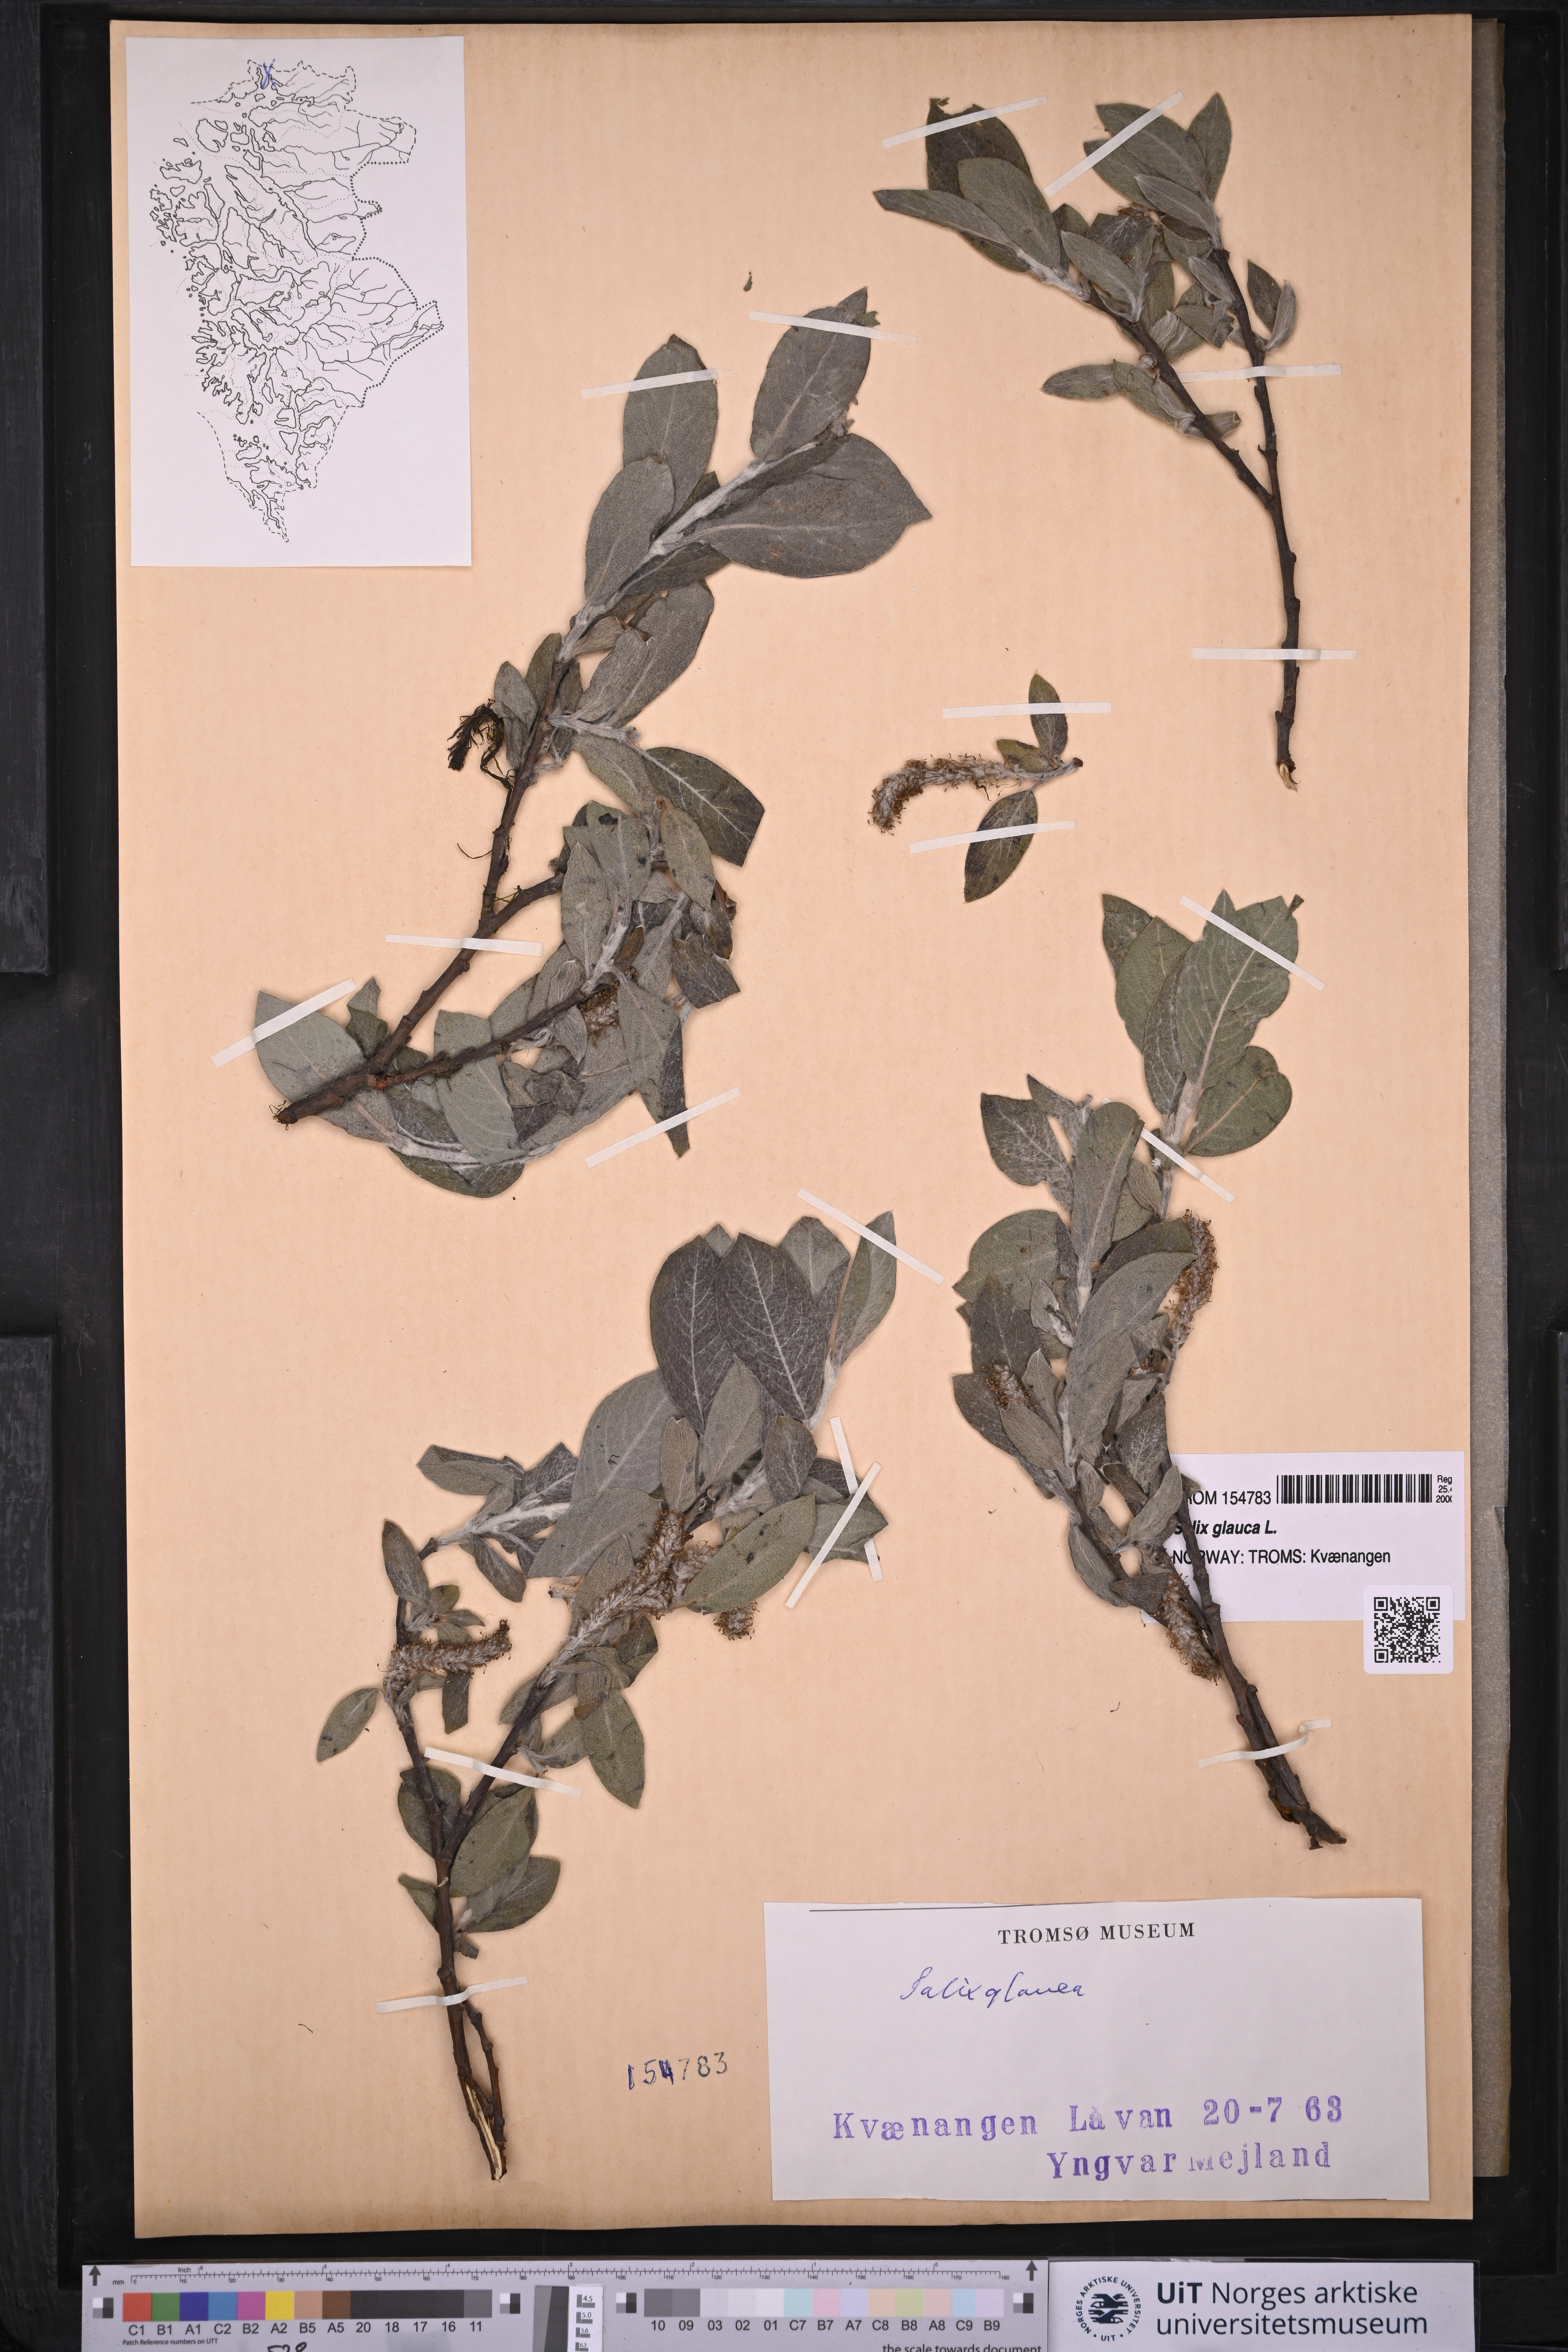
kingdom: Plantae
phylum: Tracheophyta
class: Magnoliopsida
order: Malpighiales
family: Salicaceae
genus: Salix
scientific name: Salix glauca
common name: Glaucous willow
